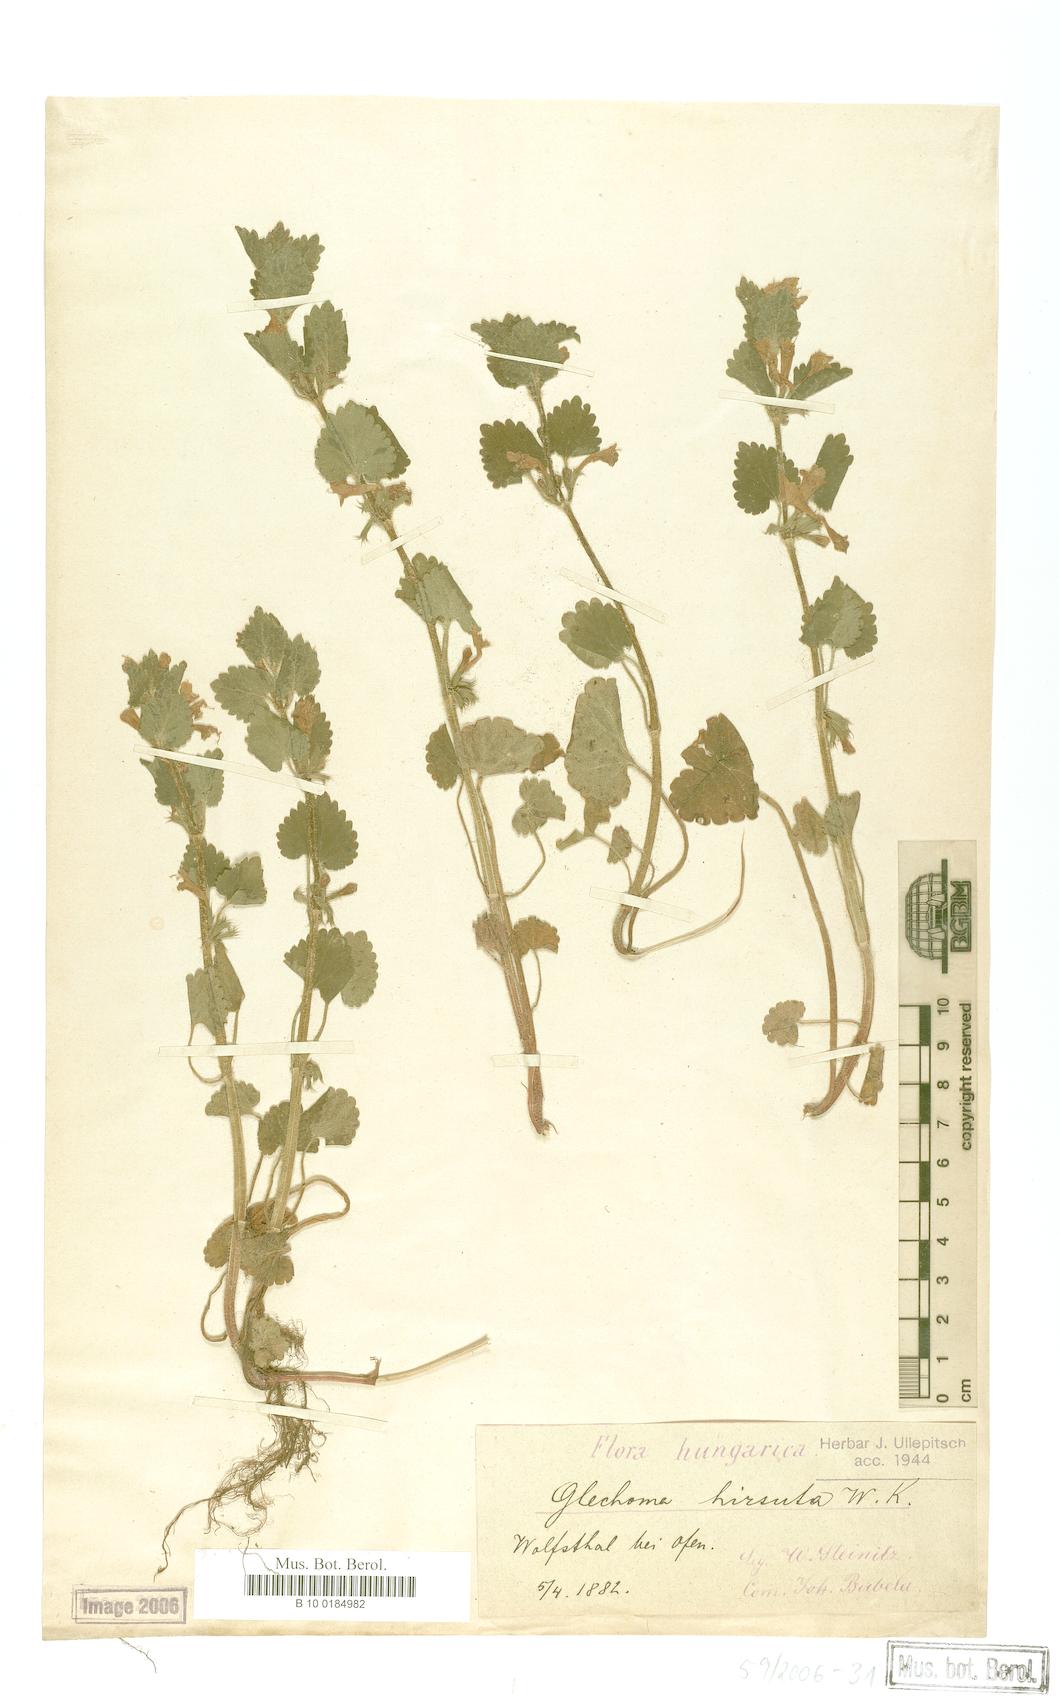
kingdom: Plantae
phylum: Tracheophyta
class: Magnoliopsida
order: Lamiales
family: Lamiaceae
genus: Glechoma
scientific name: Glechoma hirsuta
